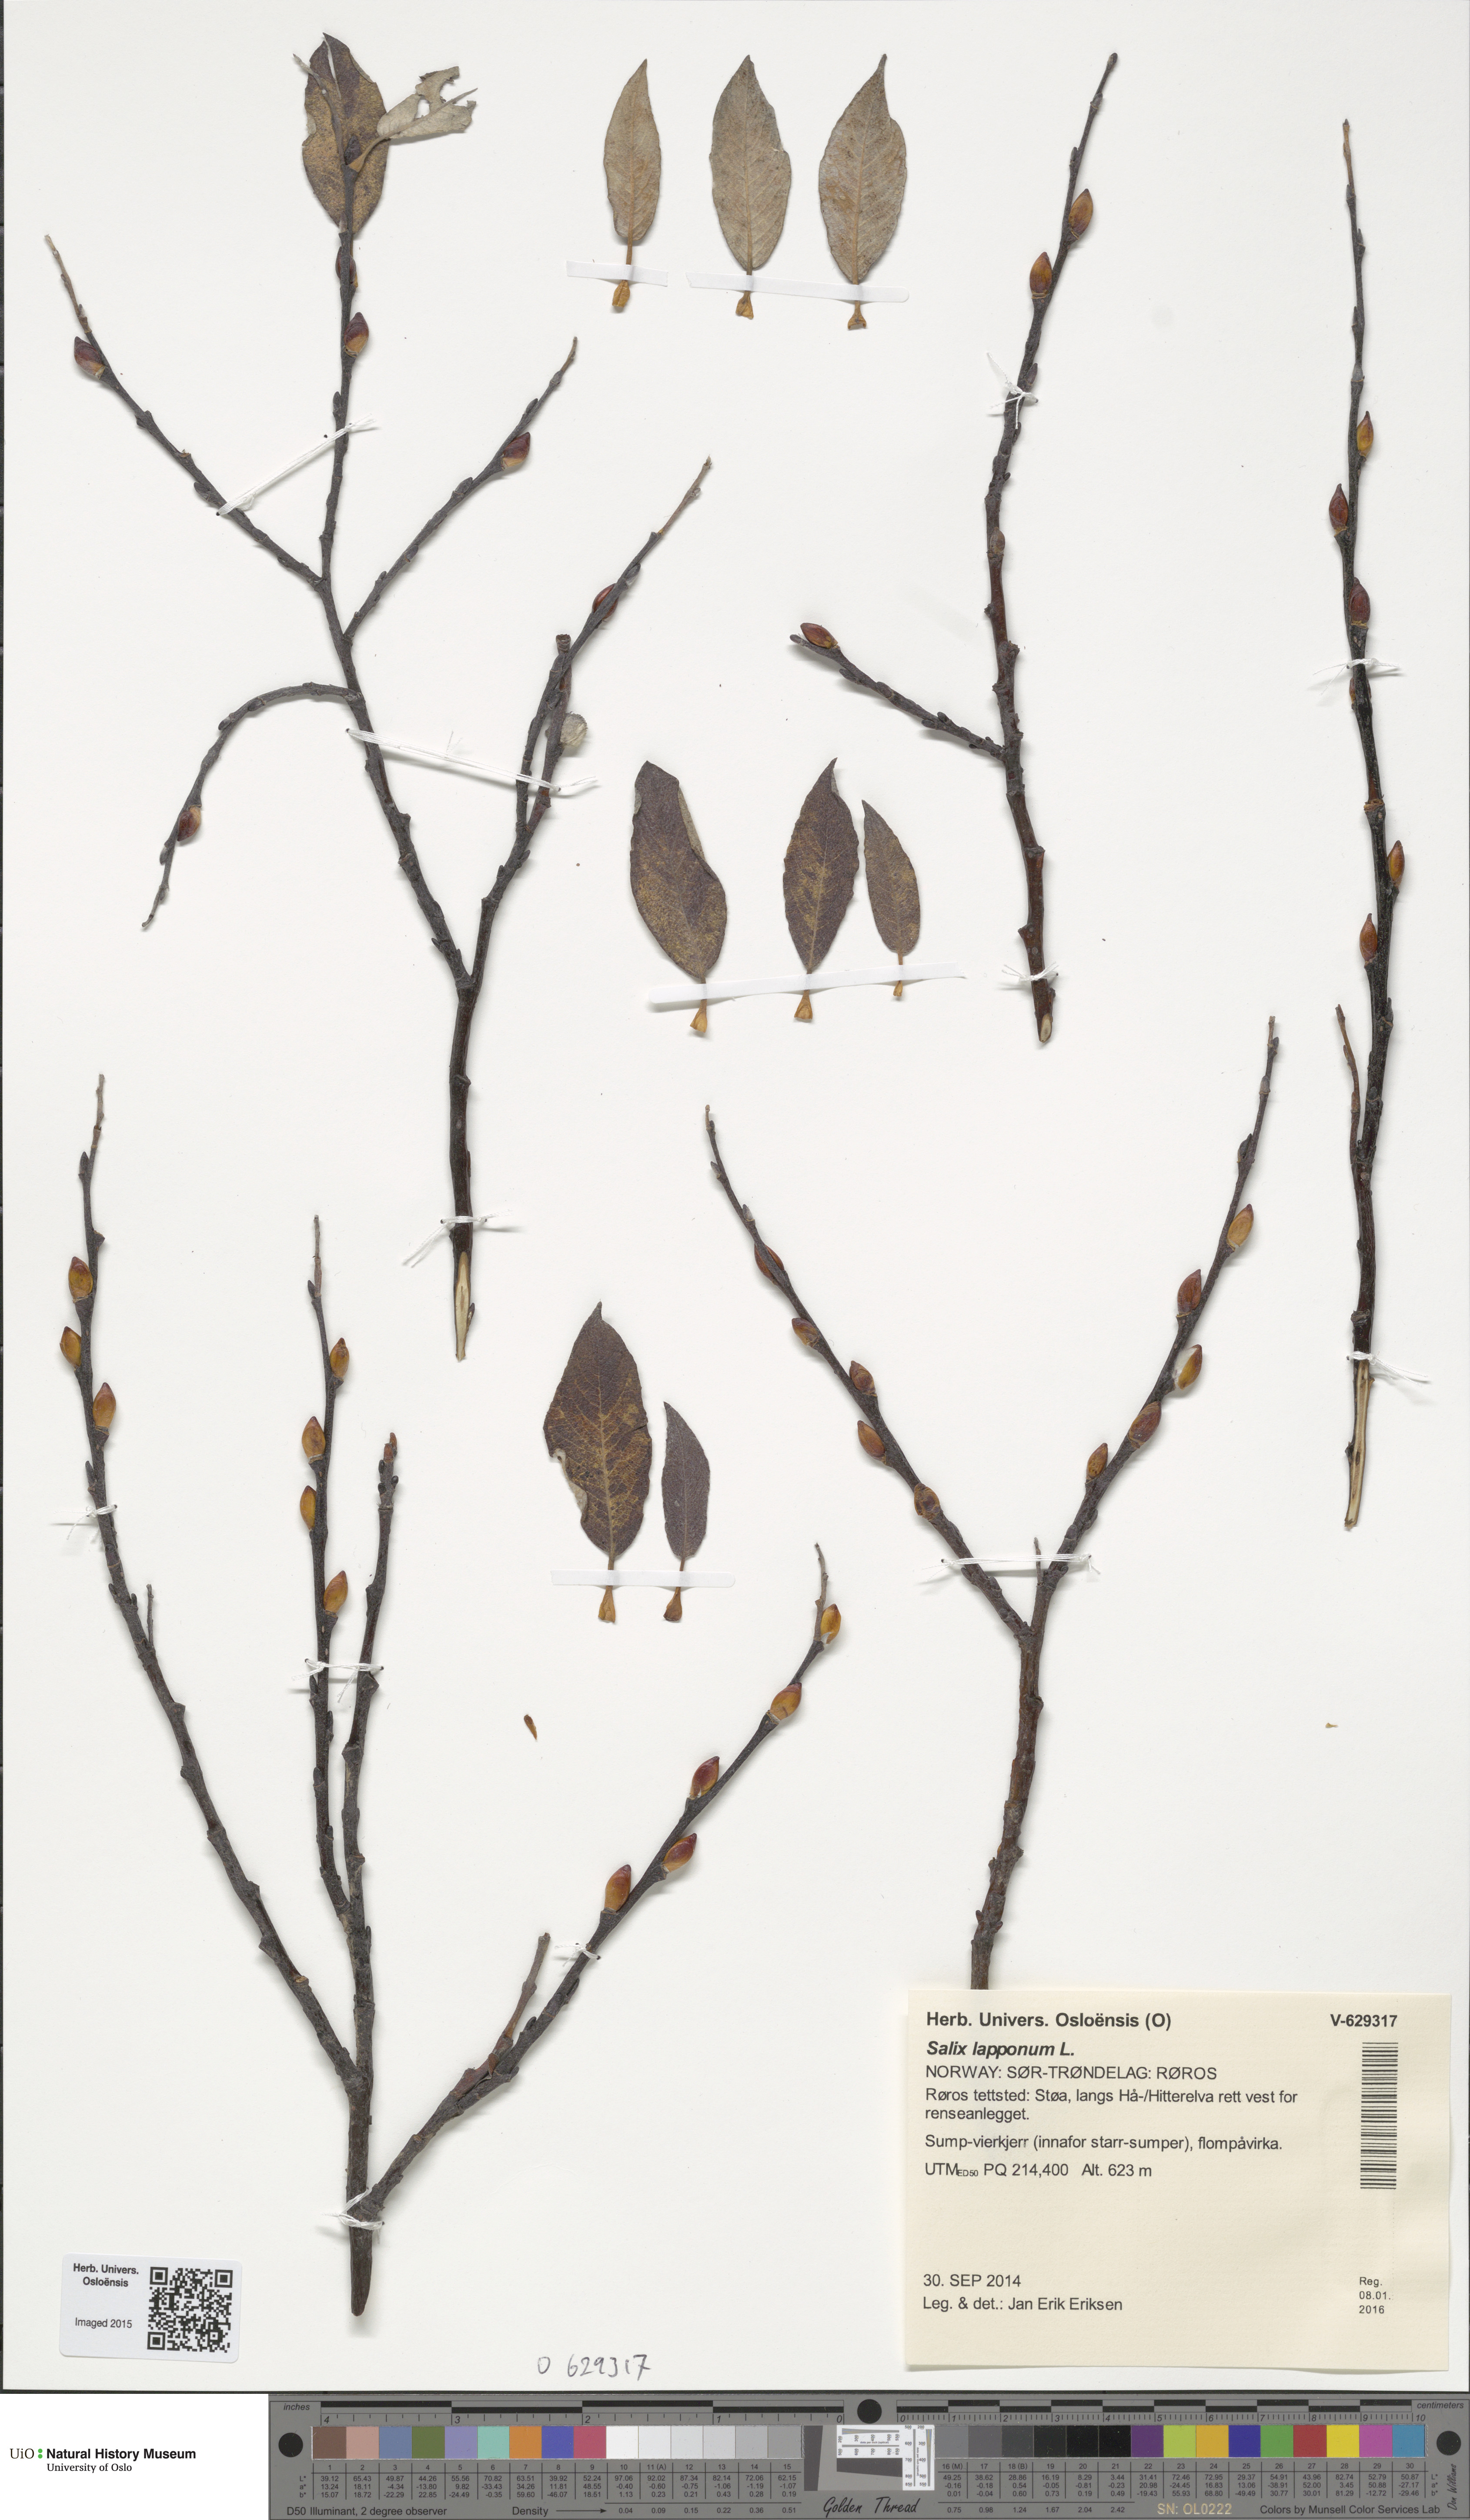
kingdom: Plantae
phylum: Tracheophyta
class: Magnoliopsida
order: Malpighiales
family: Salicaceae
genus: Salix
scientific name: Salix lapponum
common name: Downy willow
